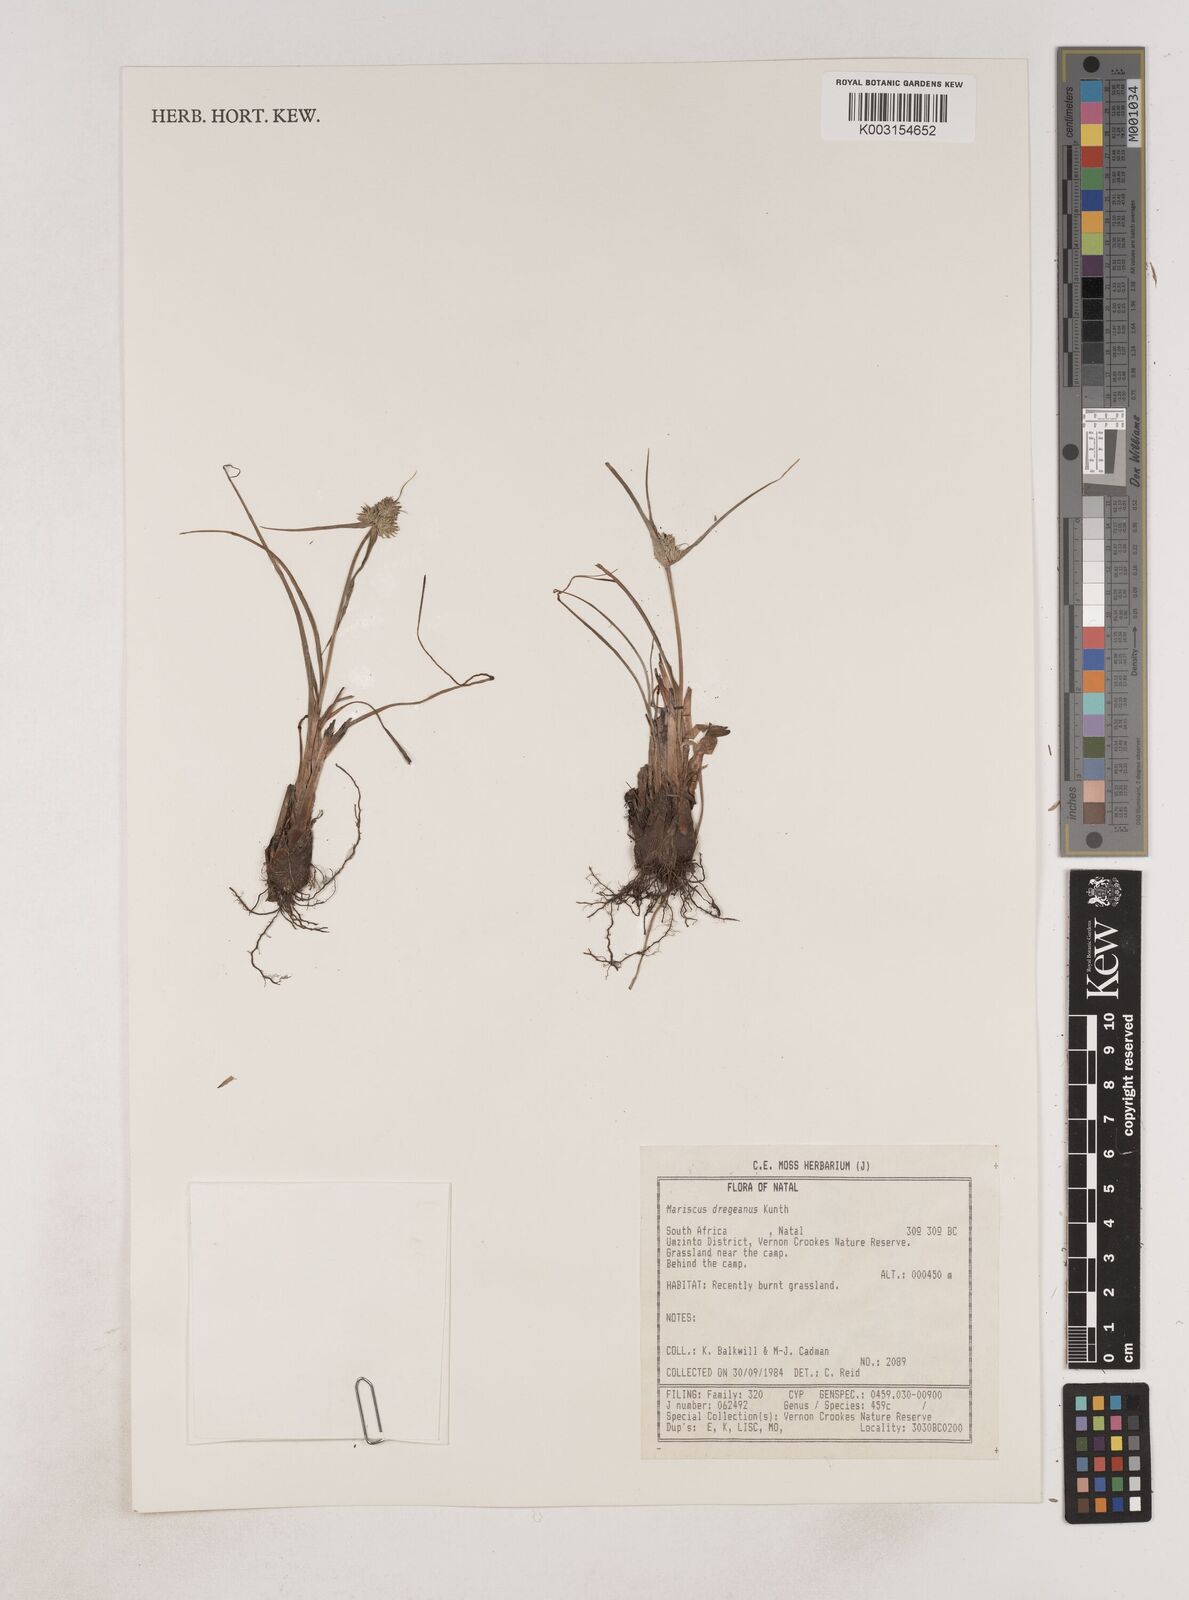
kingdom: Plantae
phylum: Tracheophyta
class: Liliopsida
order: Poales
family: Cyperaceae
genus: Cyperus
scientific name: Cyperus dubius
